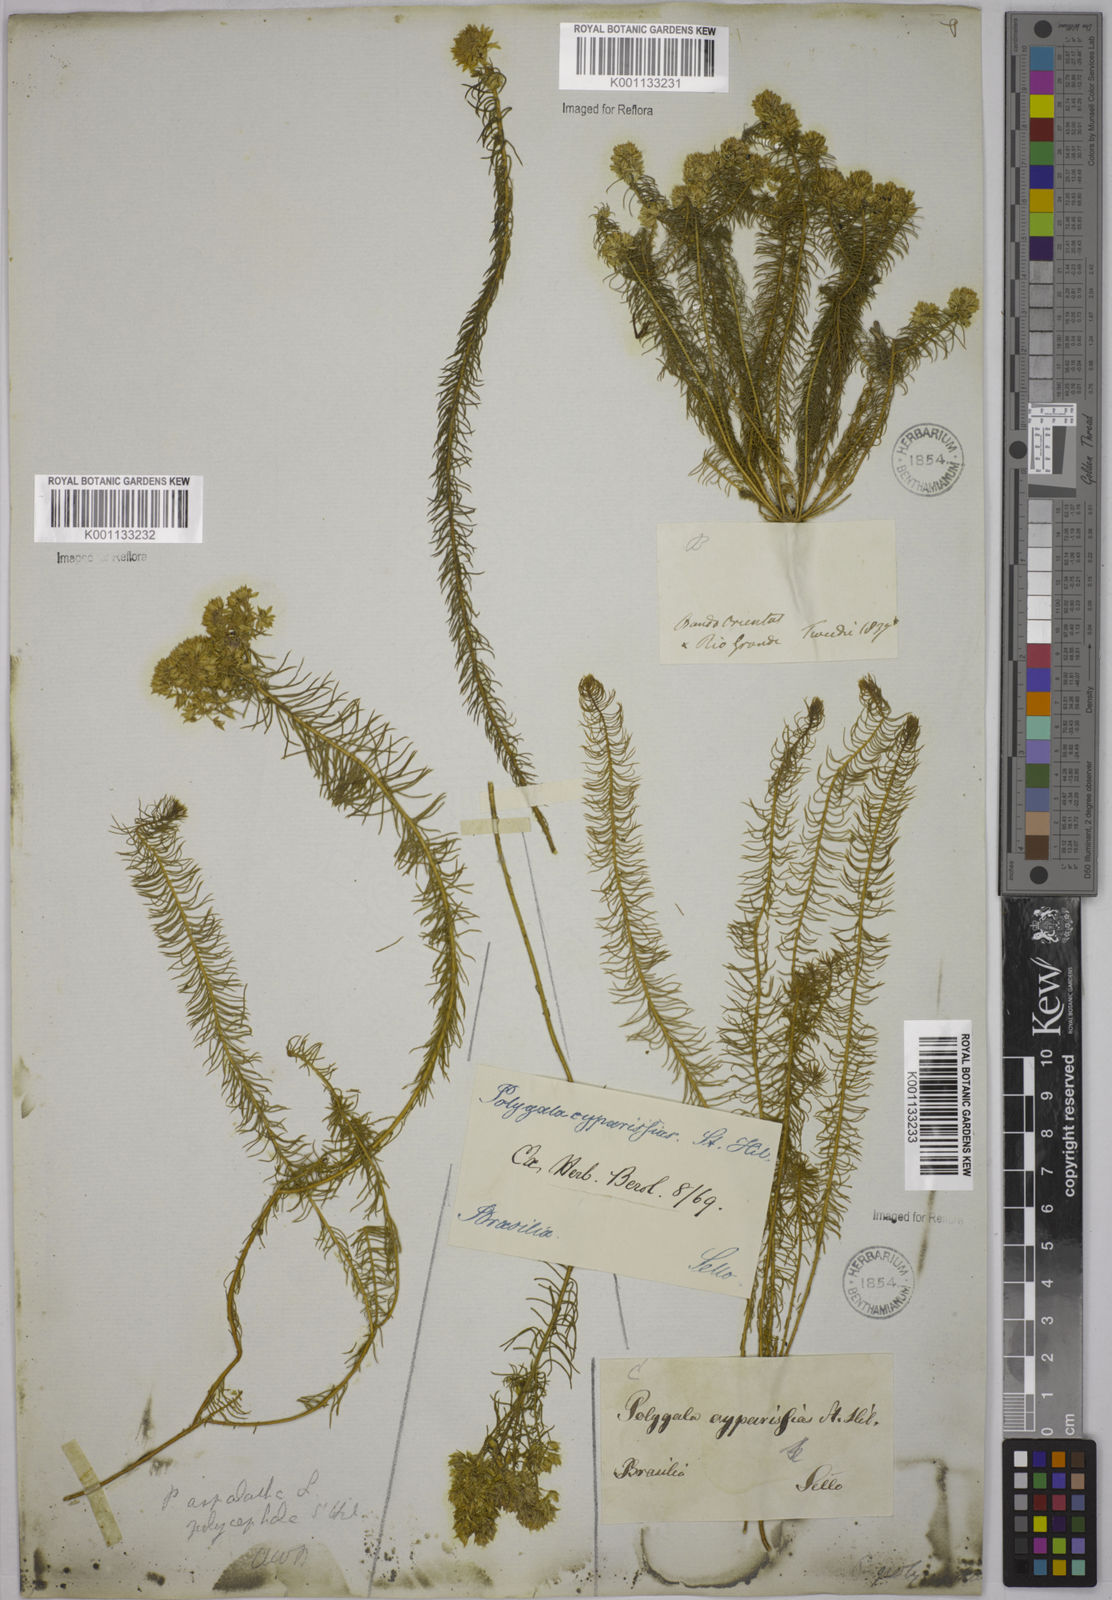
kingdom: Plantae
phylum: Tracheophyta
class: Magnoliopsida
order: Fabales
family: Polygalaceae
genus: Polygala
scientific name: Polygala aspalatha
